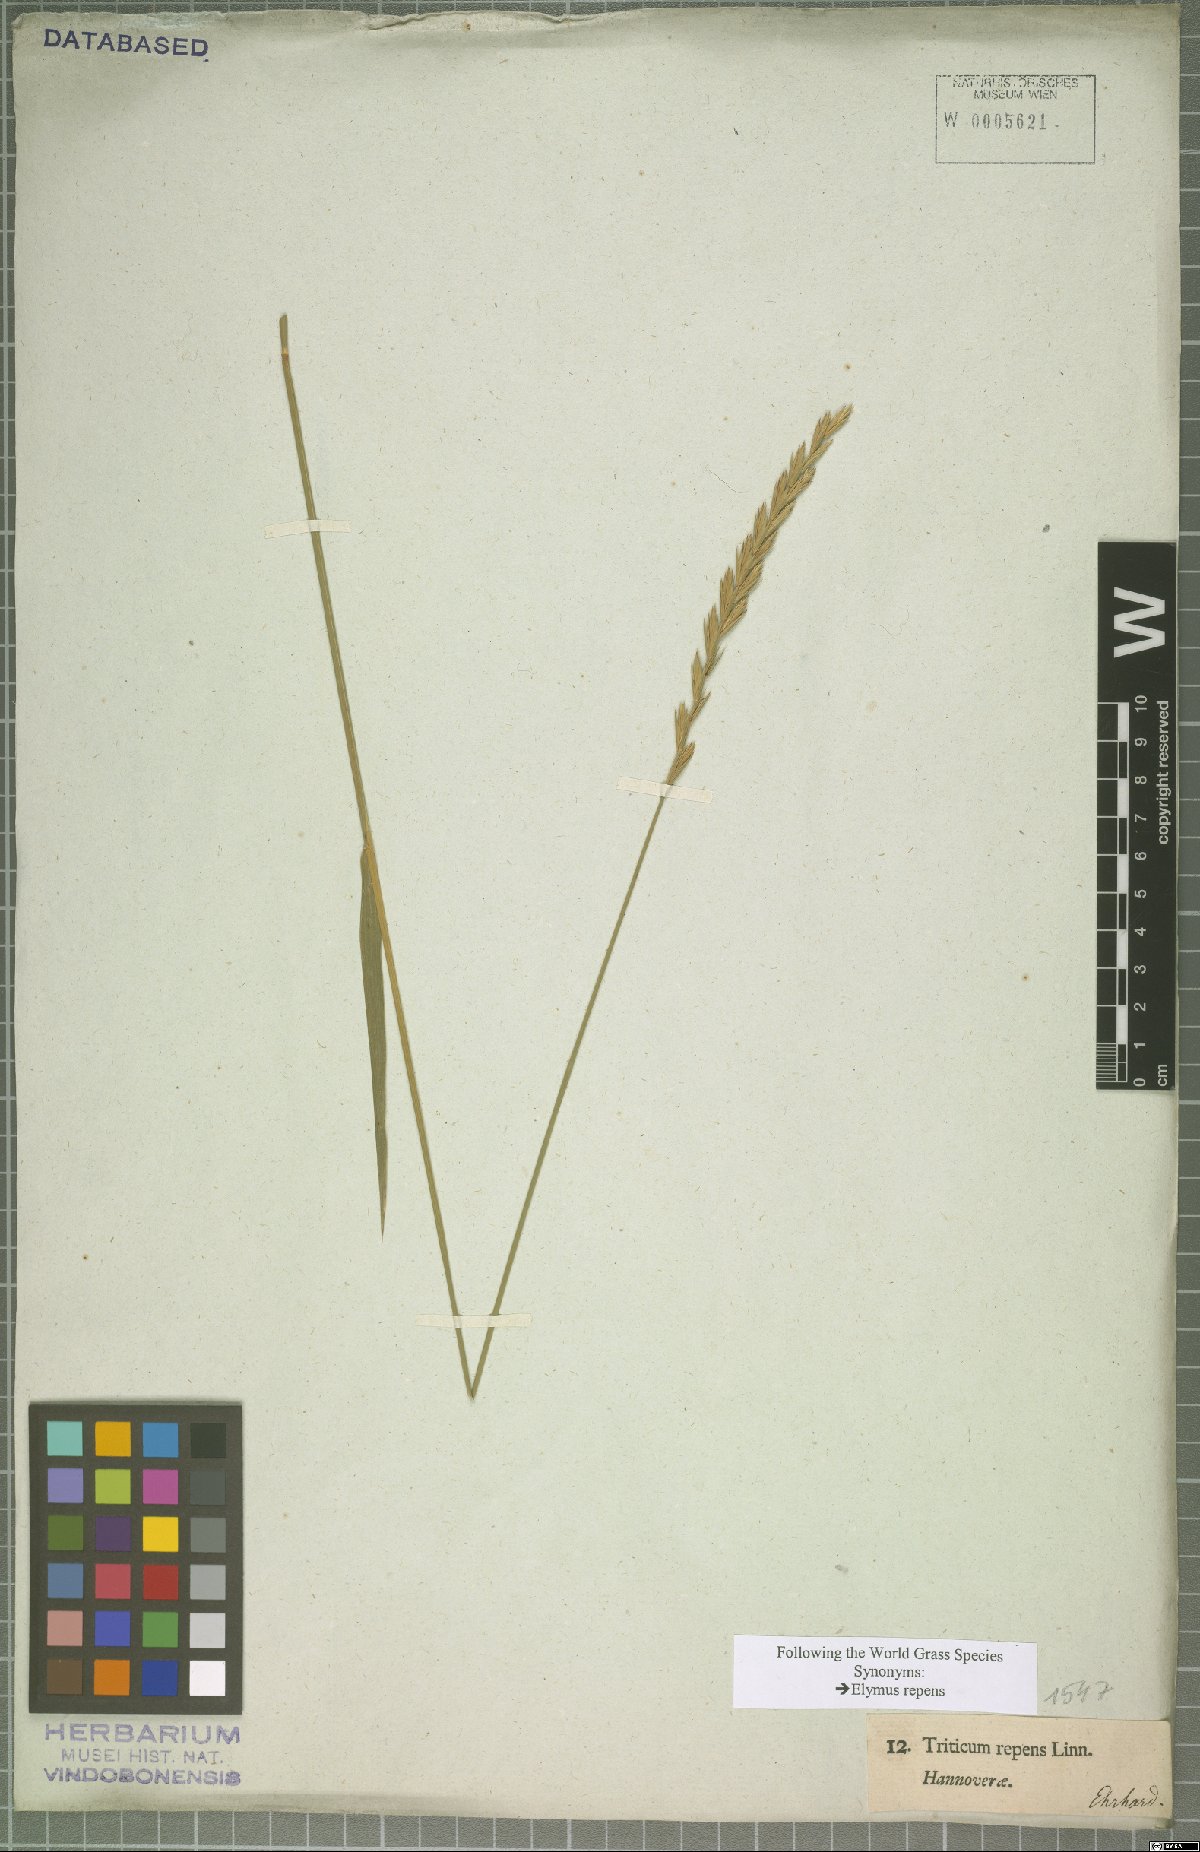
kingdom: Plantae
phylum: Tracheophyta
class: Liliopsida
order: Poales
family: Poaceae
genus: Elymus
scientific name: Elymus repens
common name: Quackgrass
